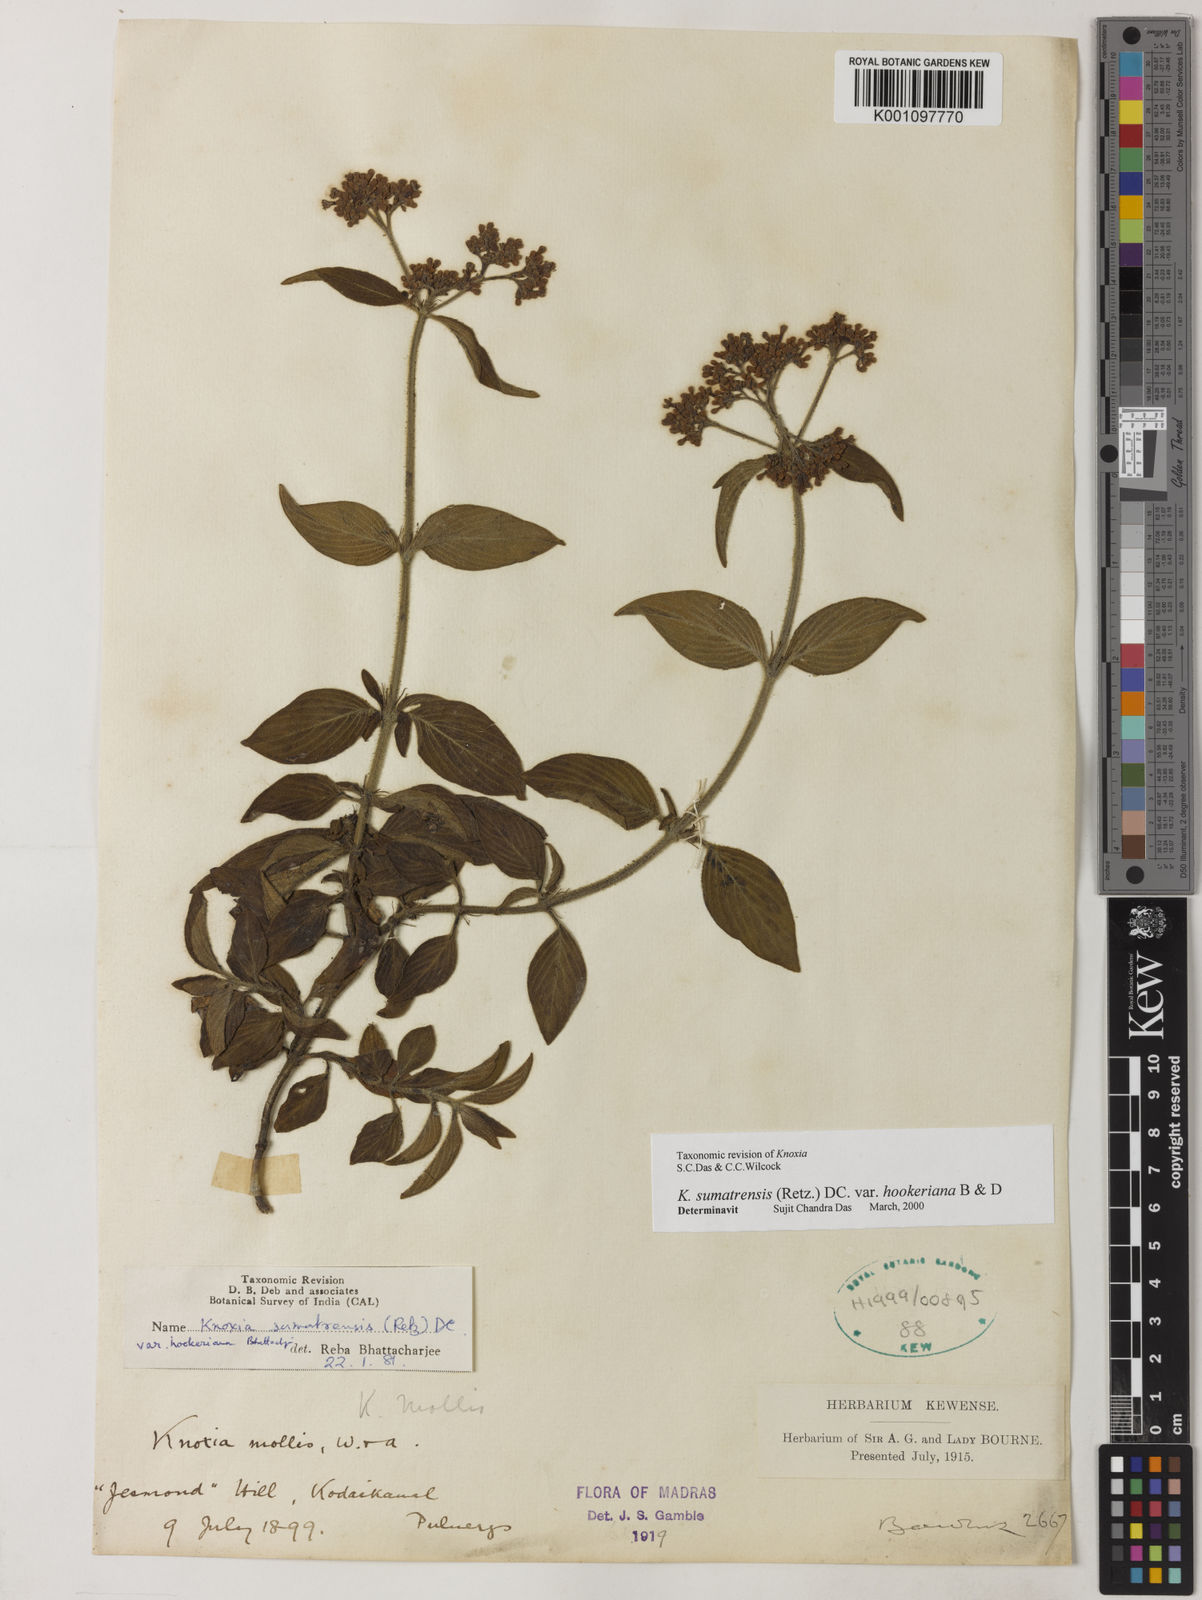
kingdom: Plantae
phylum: Tracheophyta
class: Magnoliopsida
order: Gentianales
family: Rubiaceae
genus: Knoxia
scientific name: Knoxia sumatrensis
